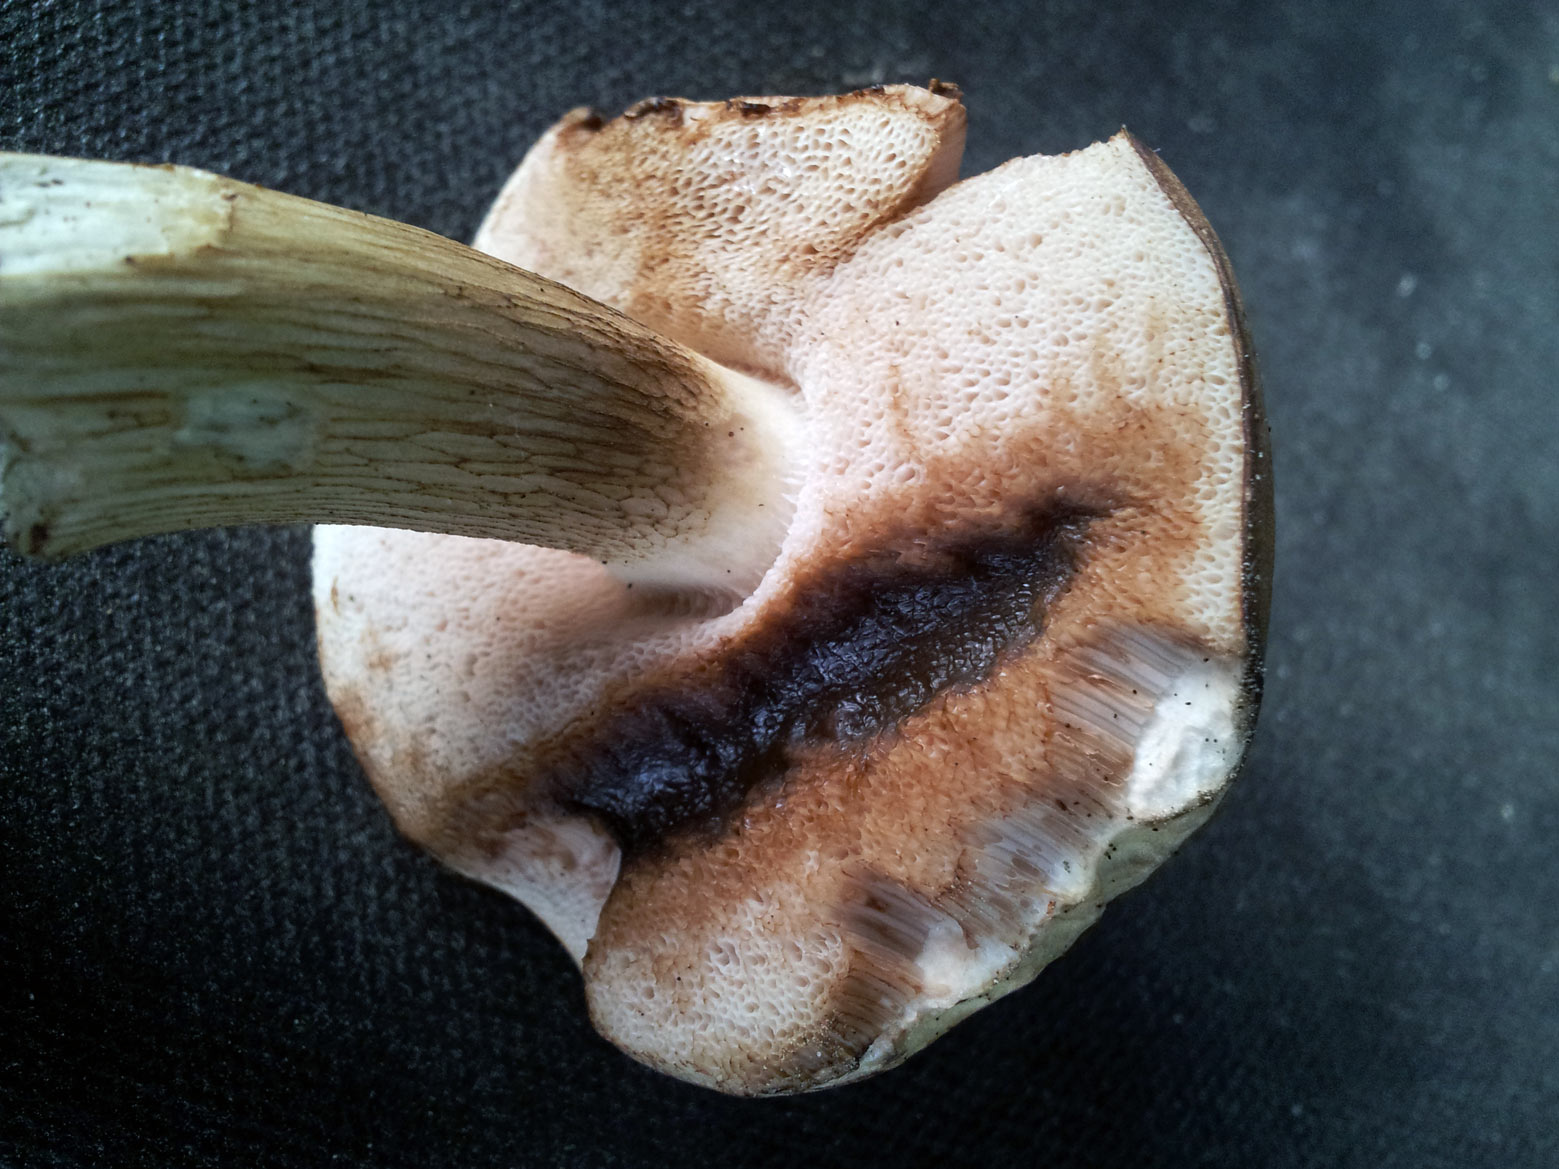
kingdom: Fungi
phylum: Basidiomycota
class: Agaricomycetes
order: Boletales
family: Boletaceae
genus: Tylopilus
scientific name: Tylopilus felleus
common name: galderørhat
